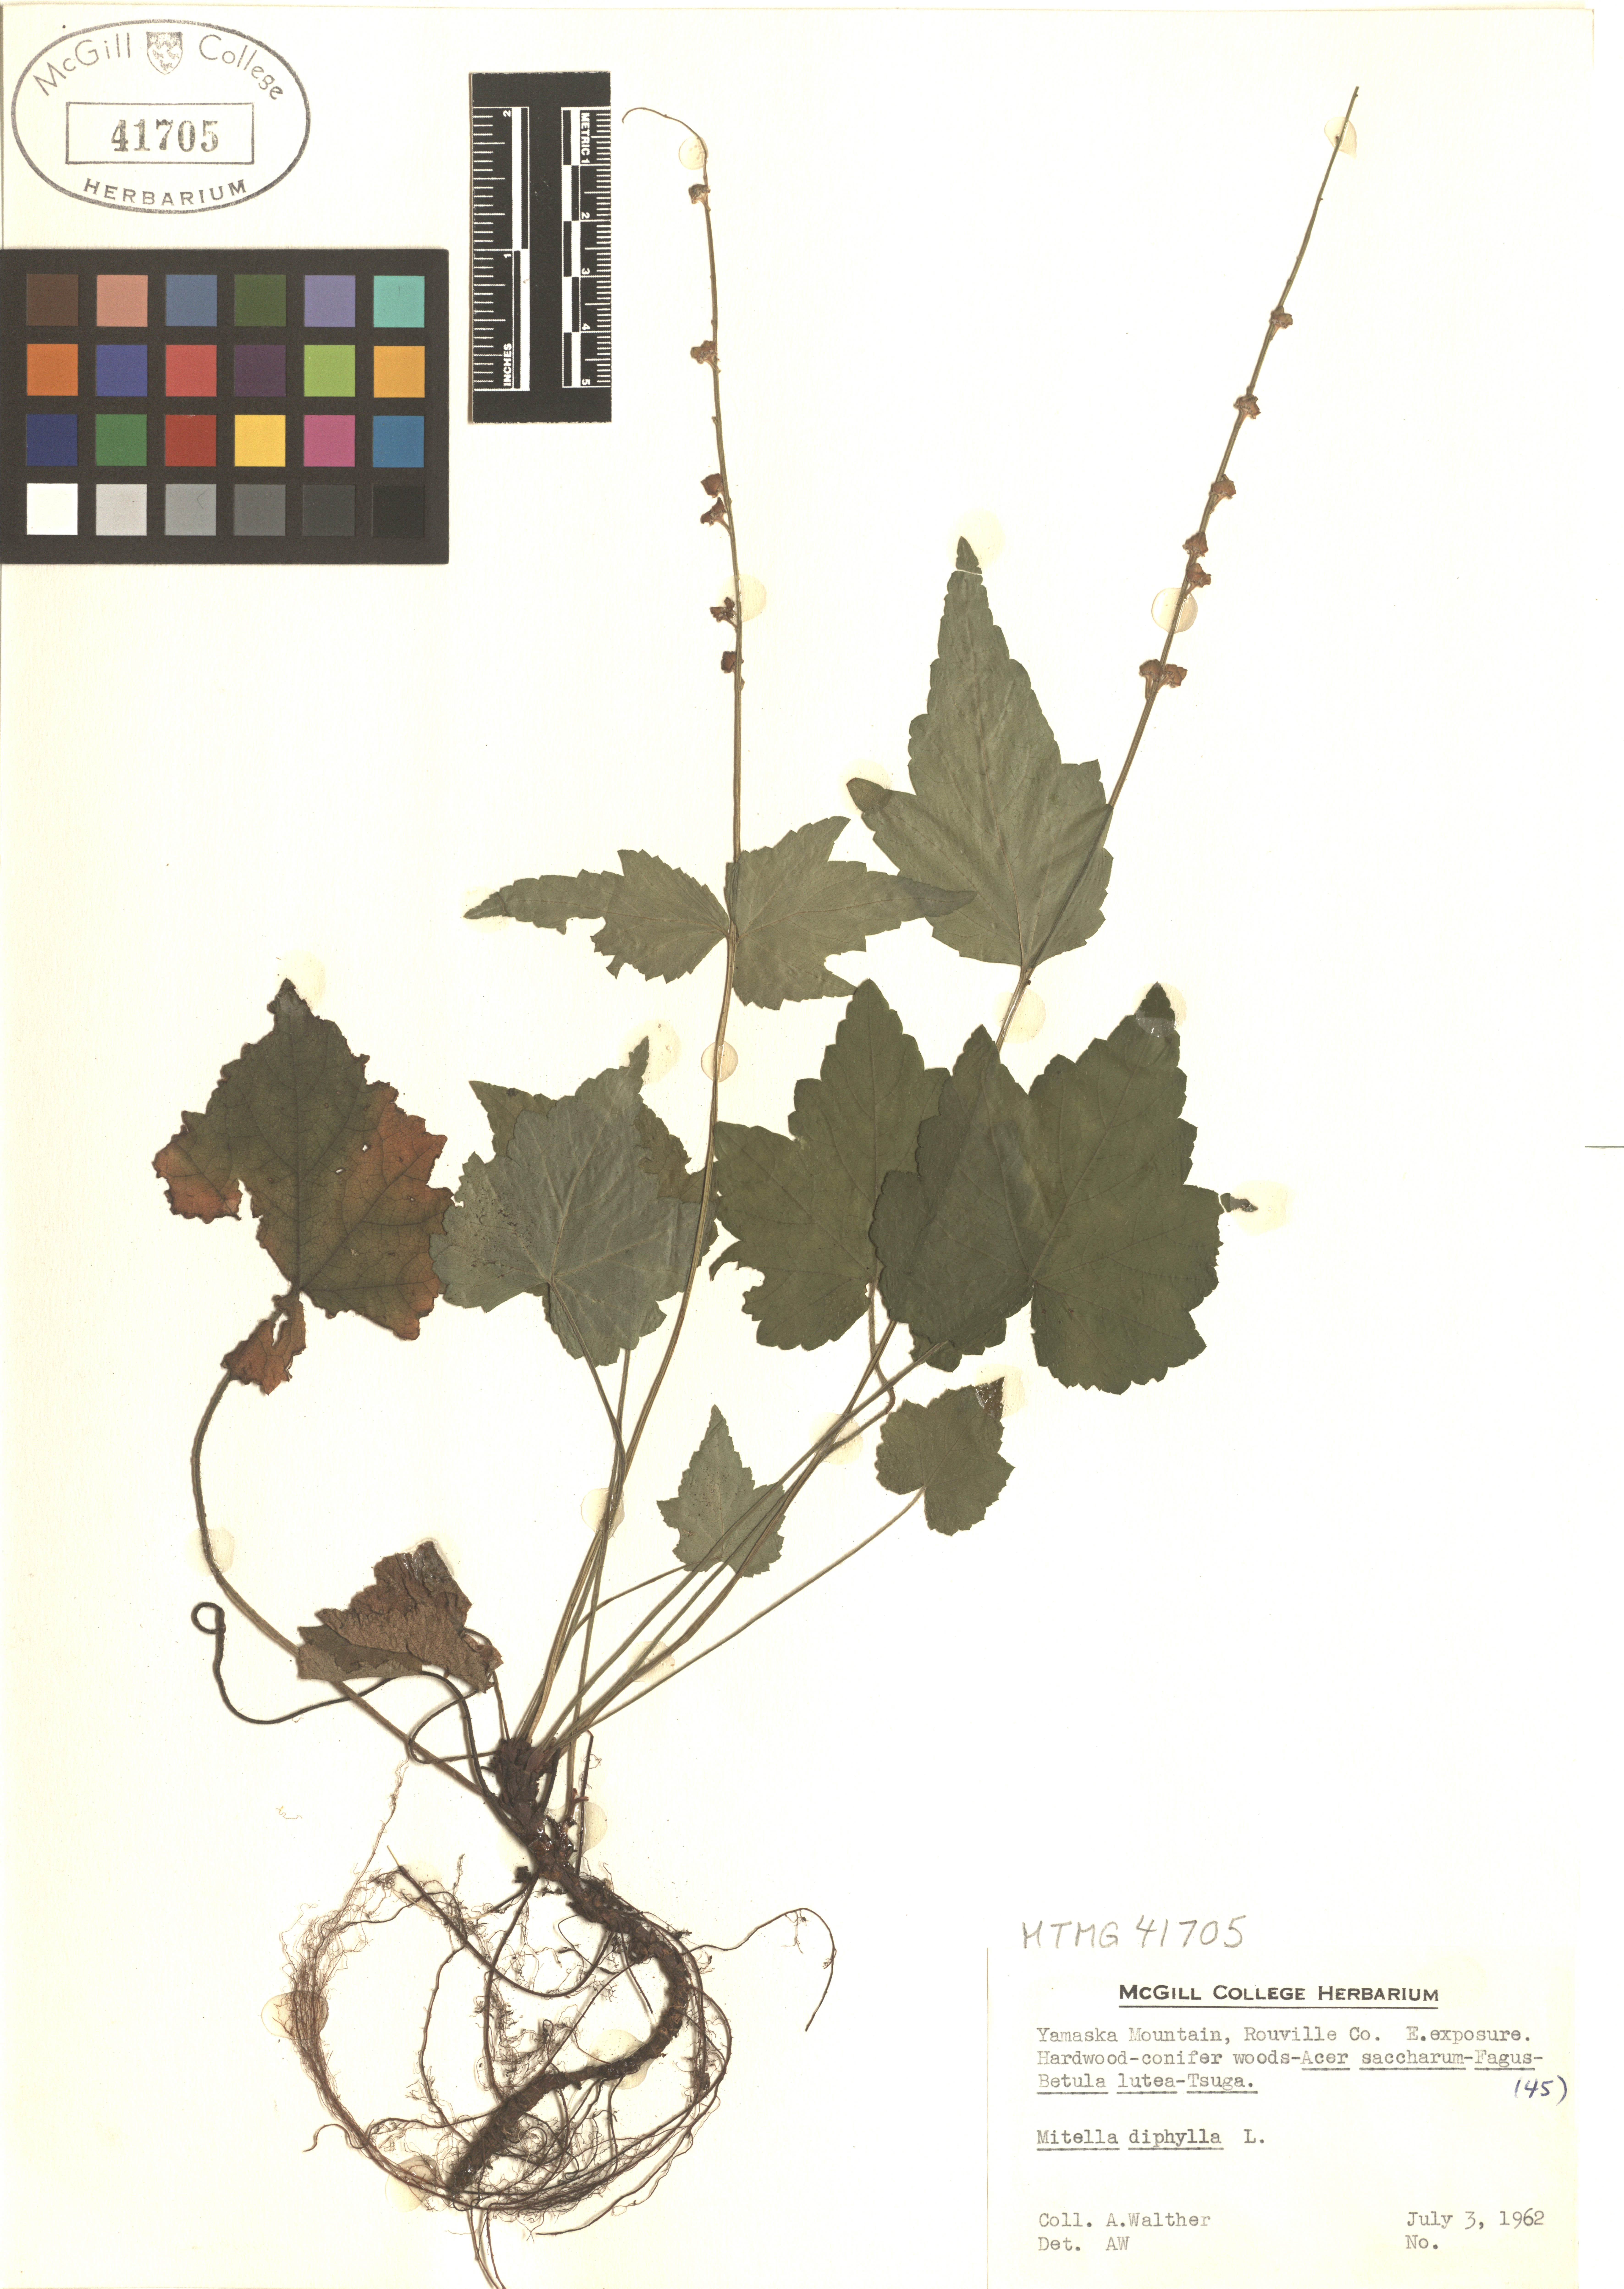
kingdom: Plantae
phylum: Tracheophyta
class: Magnoliopsida
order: Saxifragales
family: Saxifragaceae
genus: Mitella
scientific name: Mitella diphylla
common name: Coolwort
